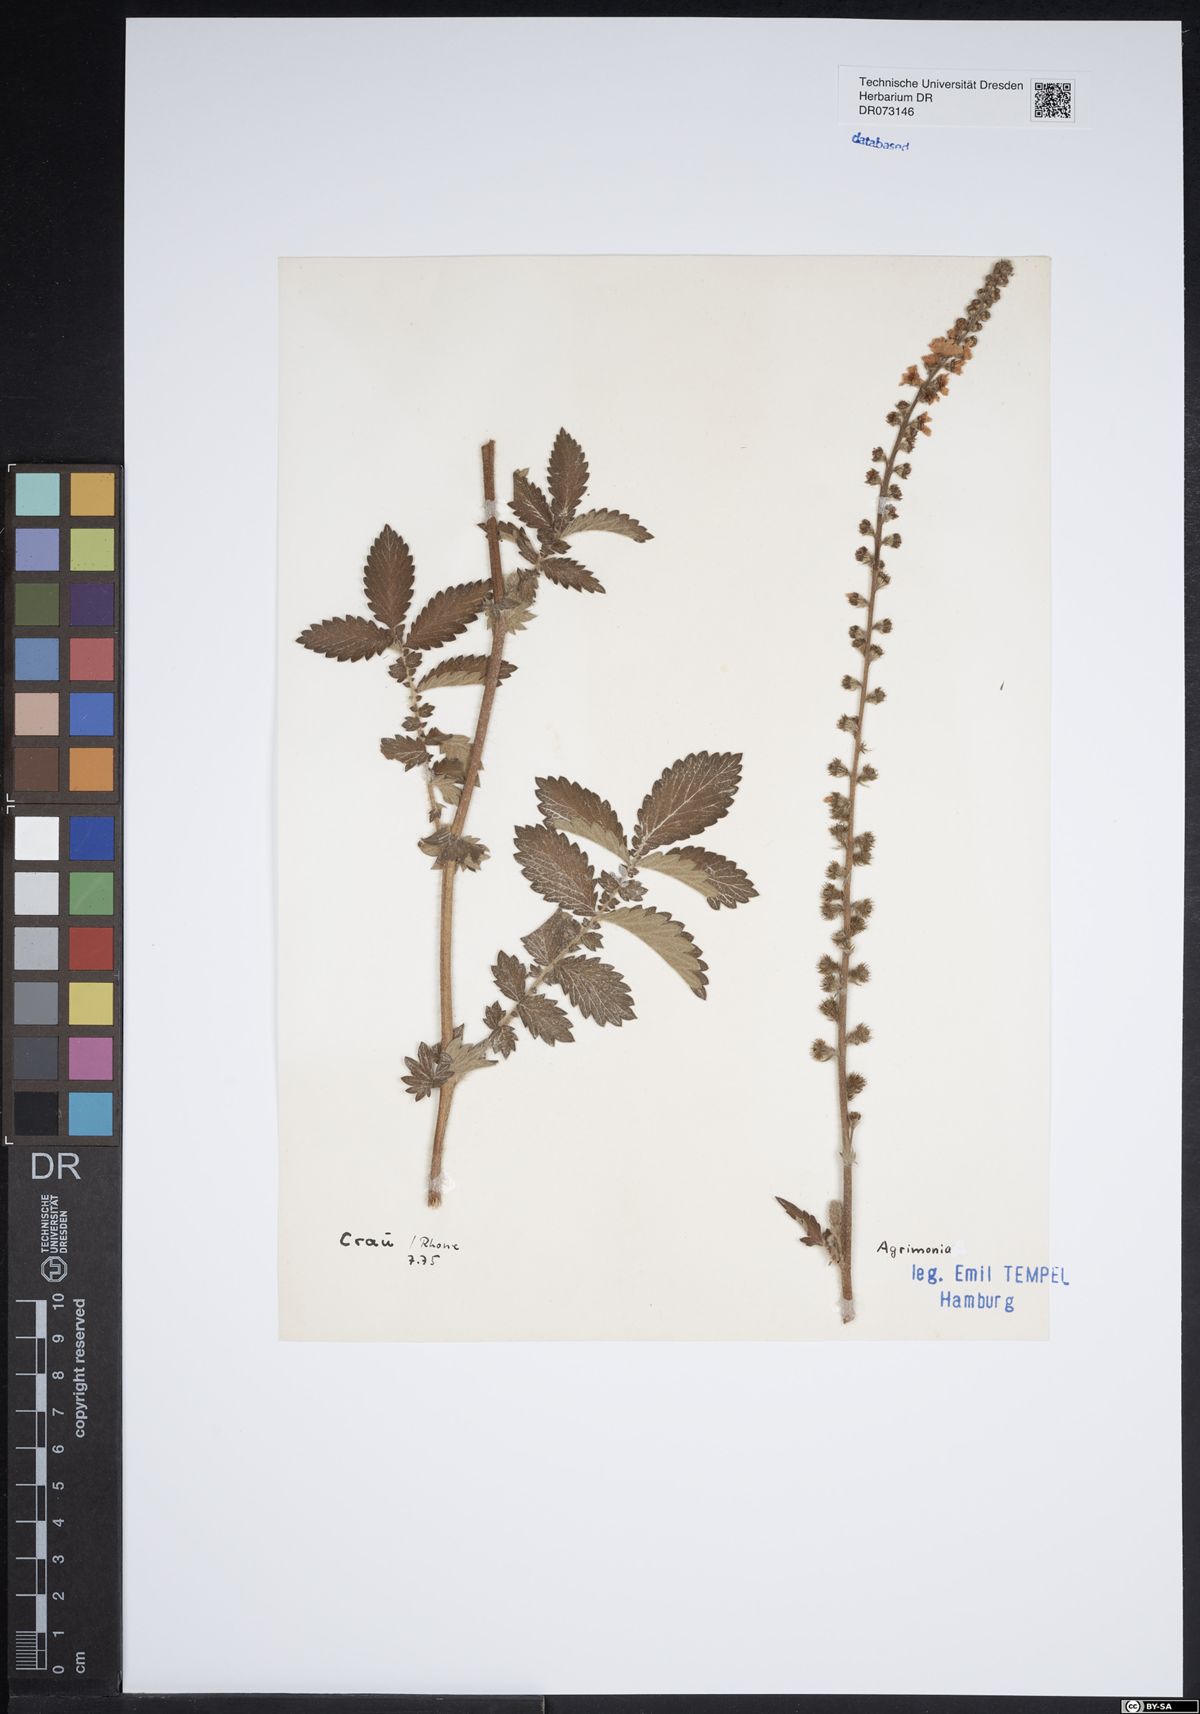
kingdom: Plantae
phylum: Tracheophyta
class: Magnoliopsida
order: Rosales
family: Rosaceae
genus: Agrimonia
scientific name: Agrimonia
